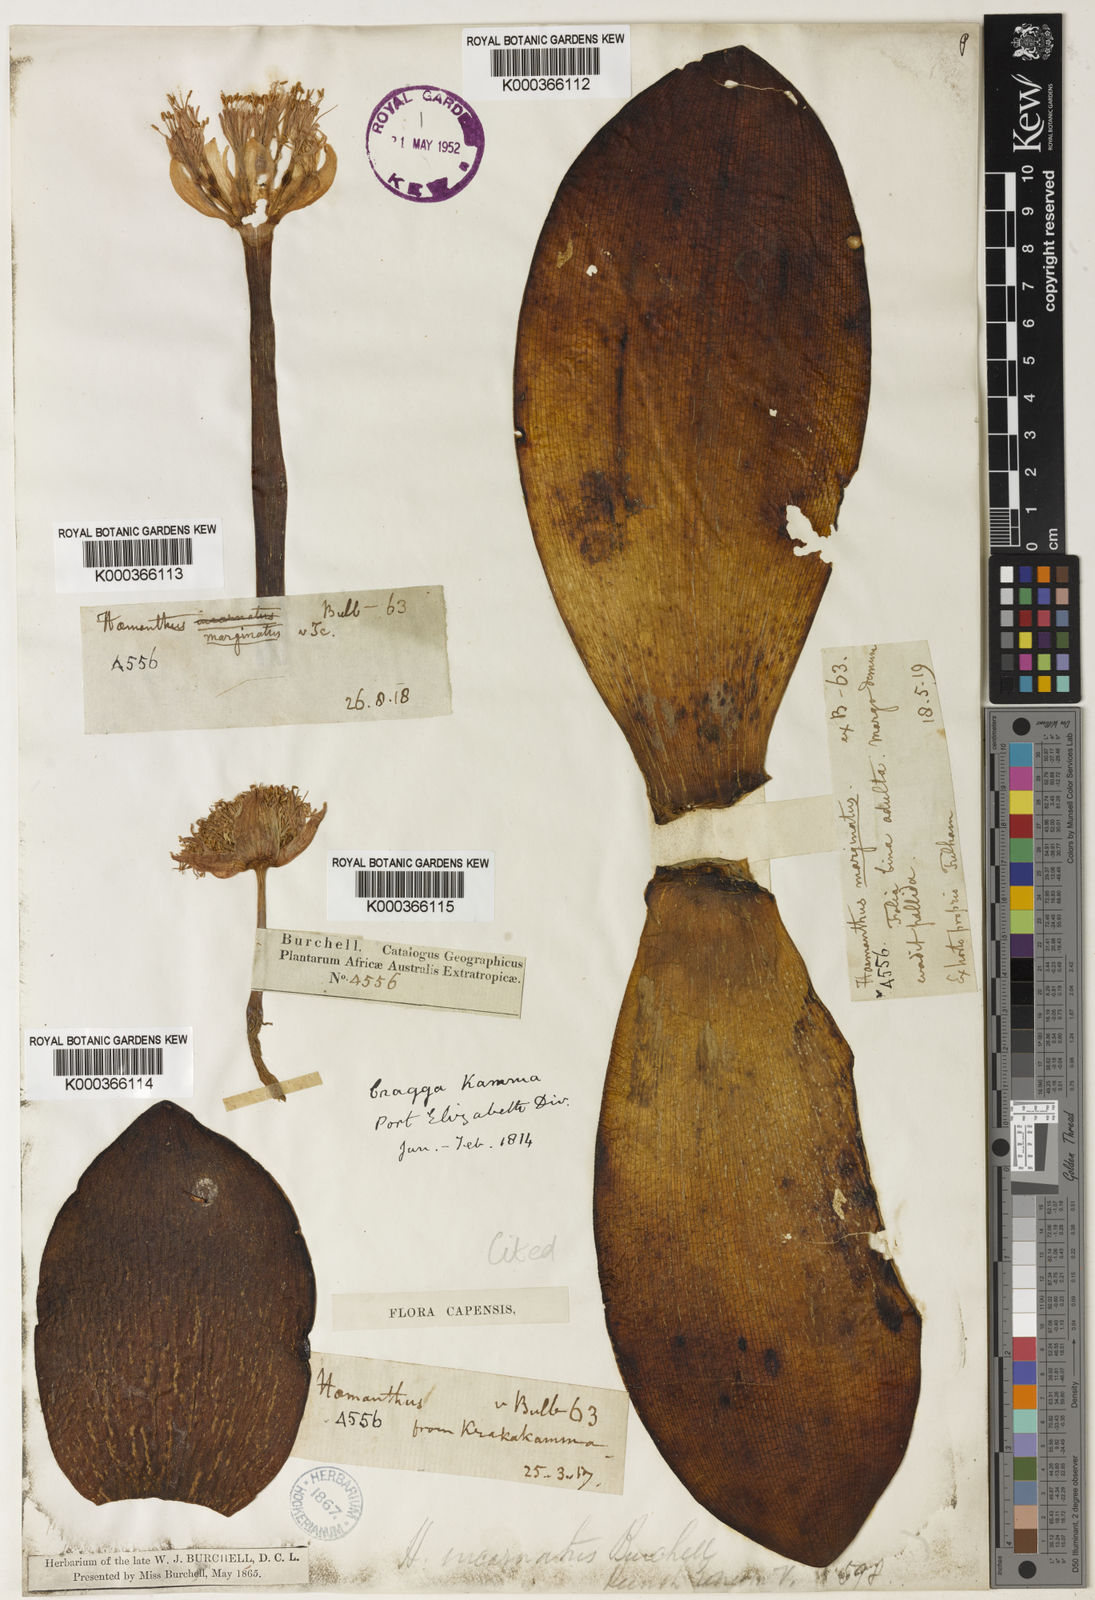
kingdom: Plantae
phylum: Tracheophyta
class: Liliopsida
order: Asparagales
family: Amaryllidaceae
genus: Haemanthus
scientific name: Haemanthus sanguineus
